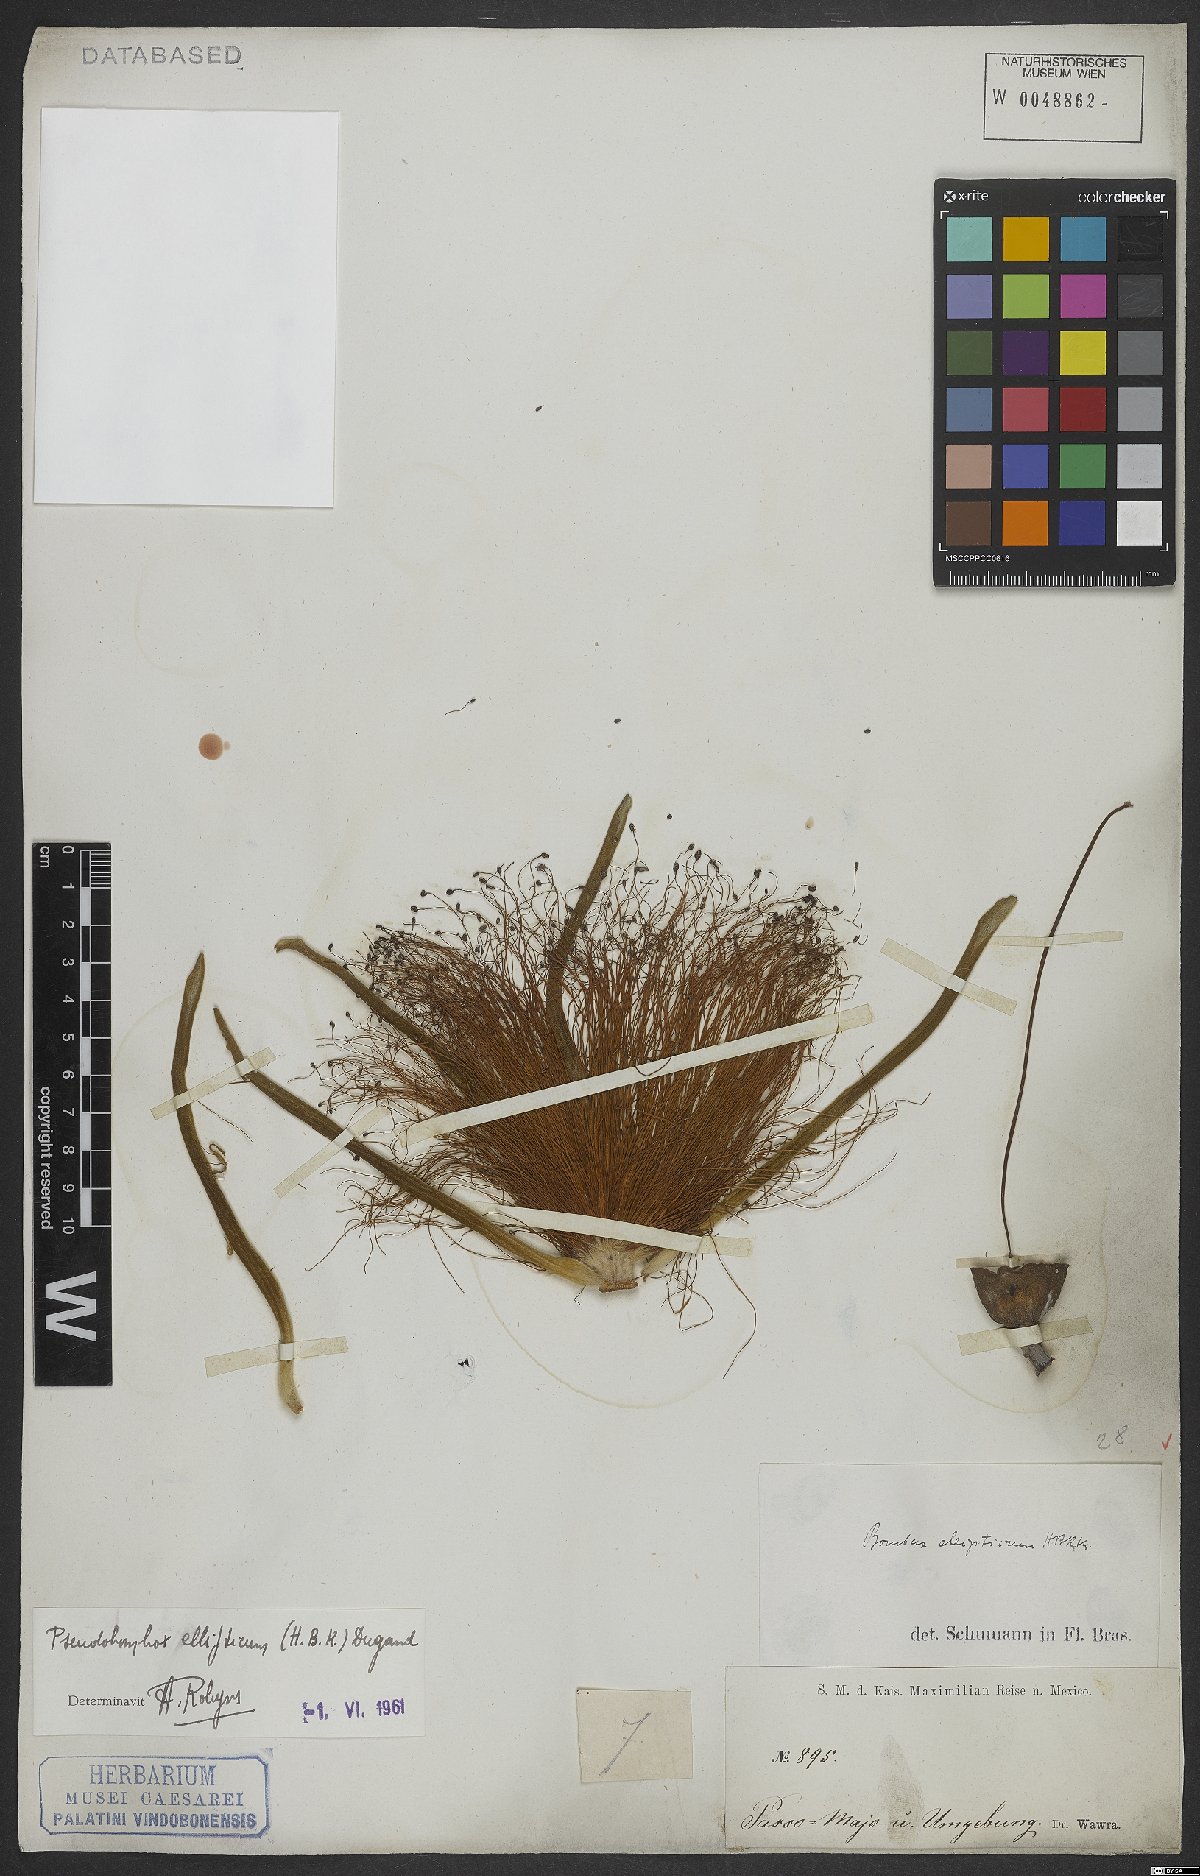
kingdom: Plantae
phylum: Tracheophyta
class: Magnoliopsida
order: Malvales
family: Malvaceae
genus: Pseudobombax
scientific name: Pseudobombax ellipticum
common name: Shaving-brush-tree
